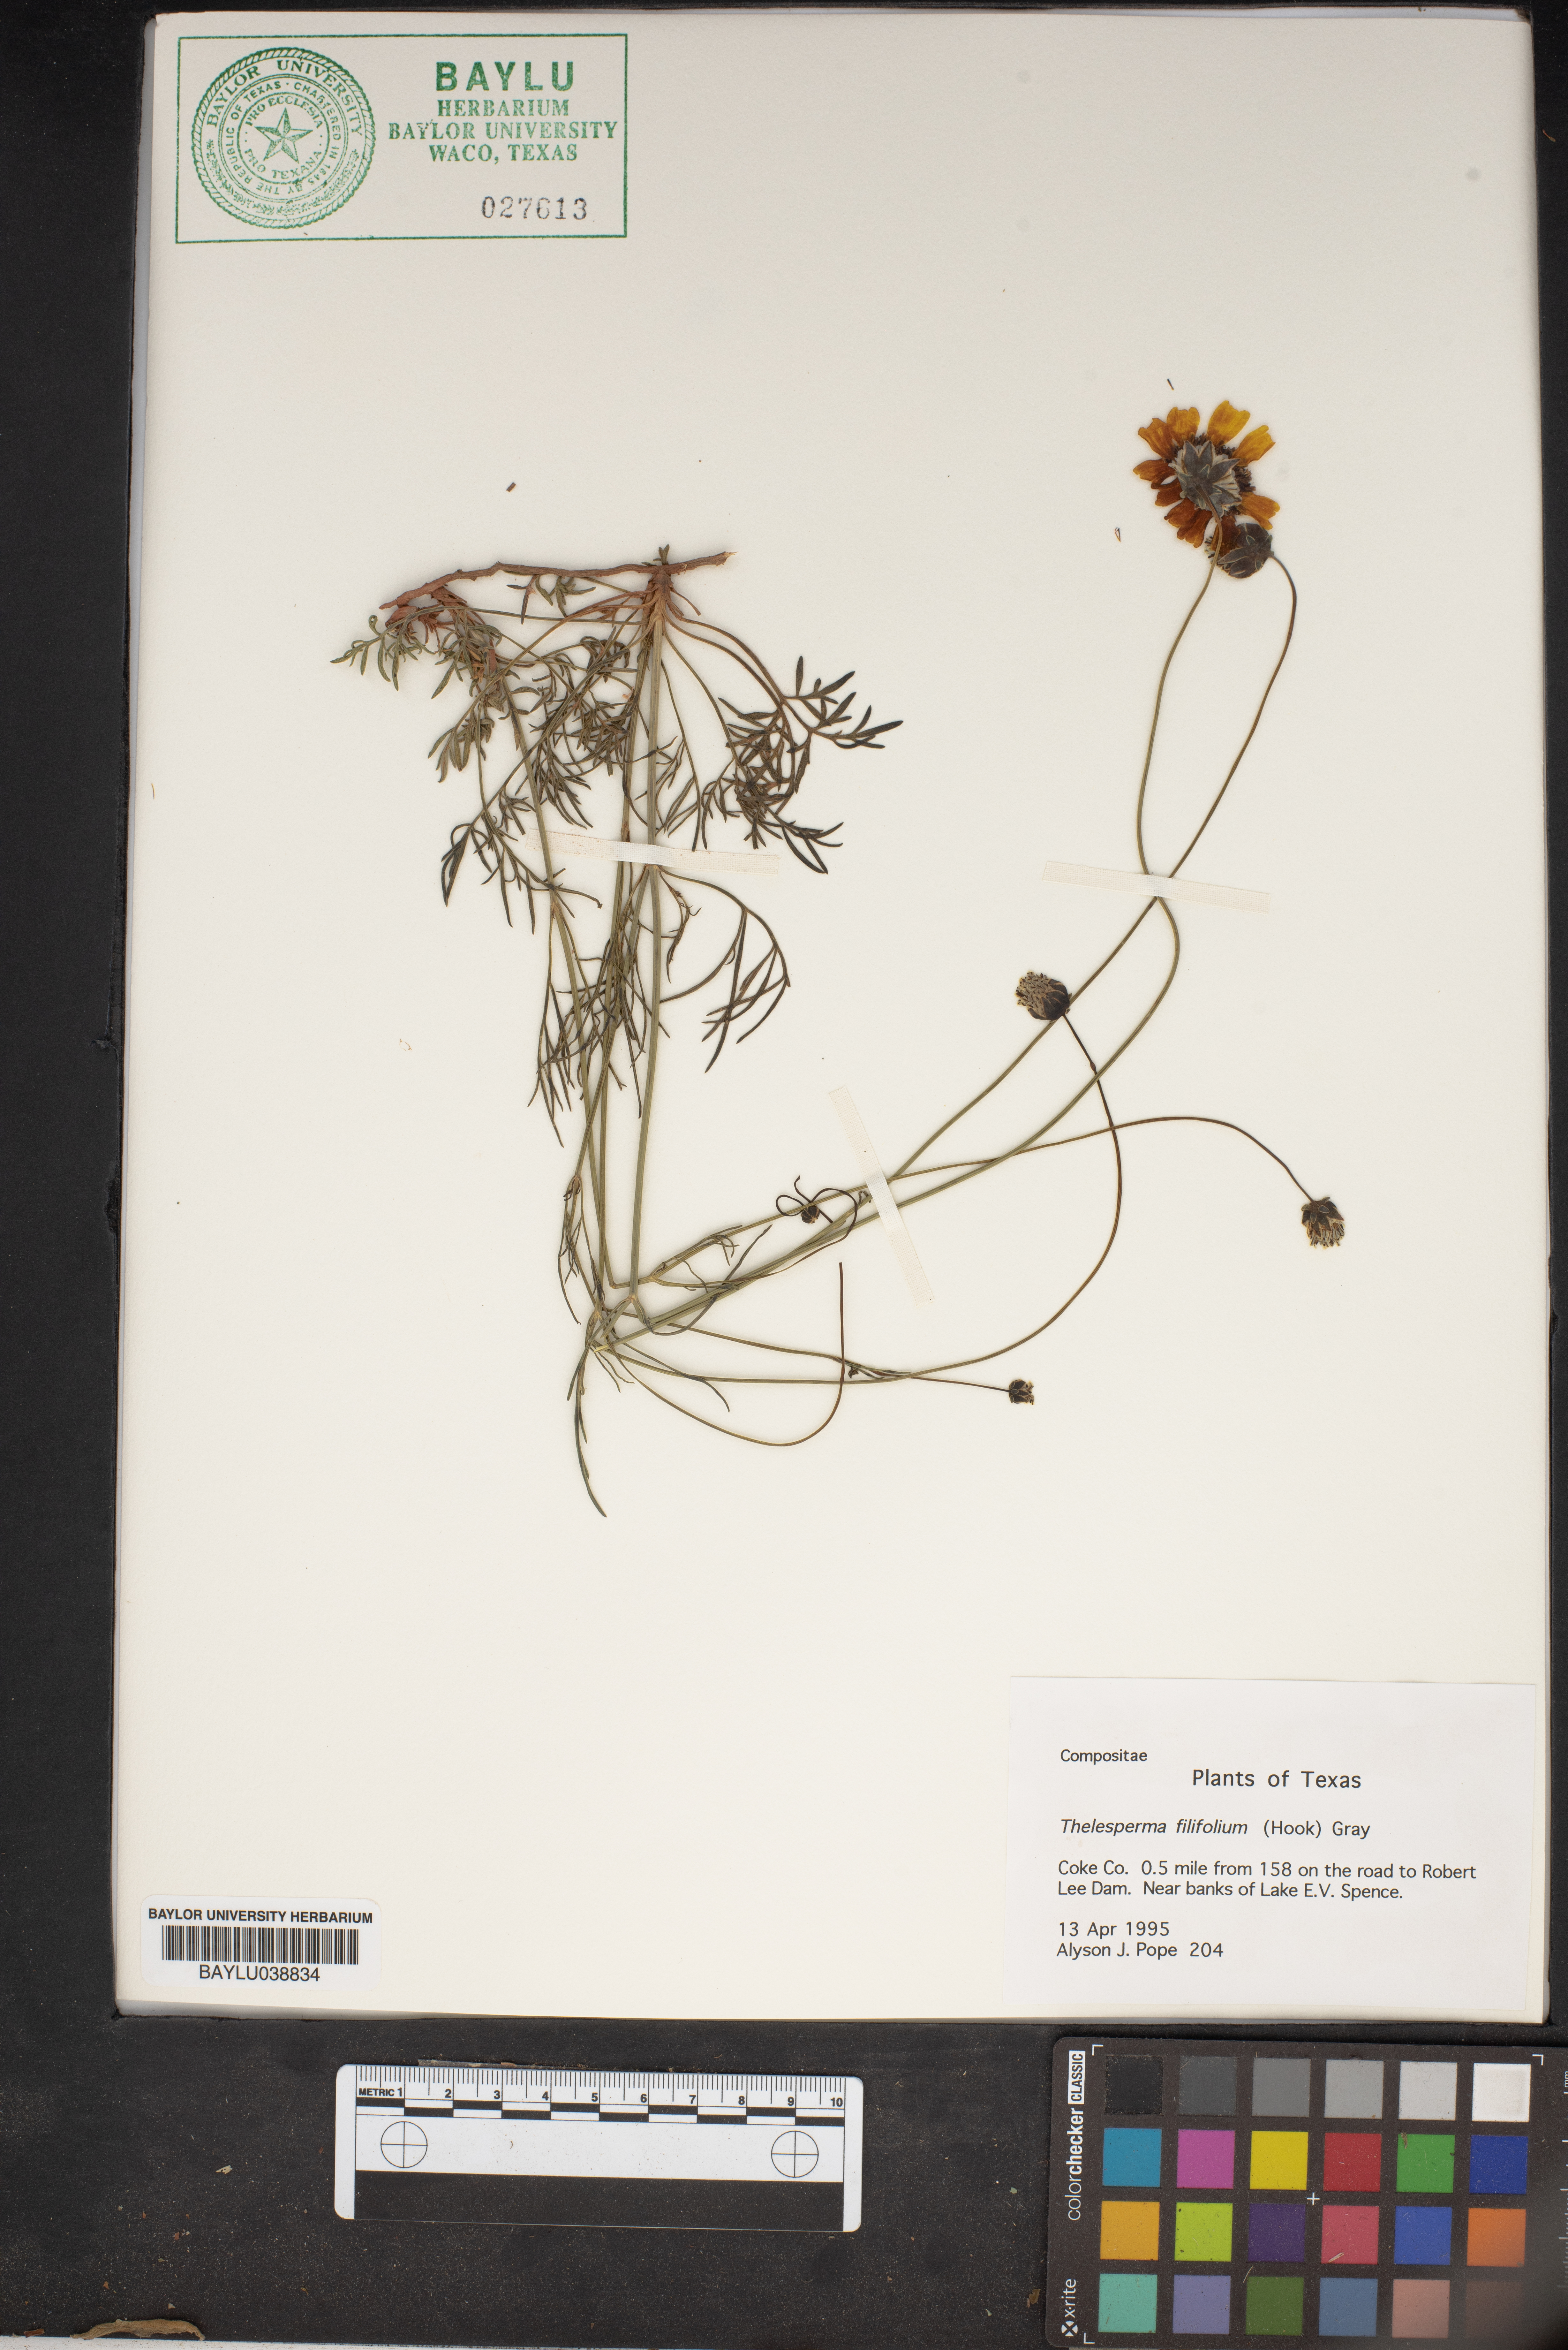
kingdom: Plantae
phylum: Tracheophyta
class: Magnoliopsida
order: Asterales
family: Asteraceae
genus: Thelesperma
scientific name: Thelesperma filifolium
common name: Stiff greenthread
